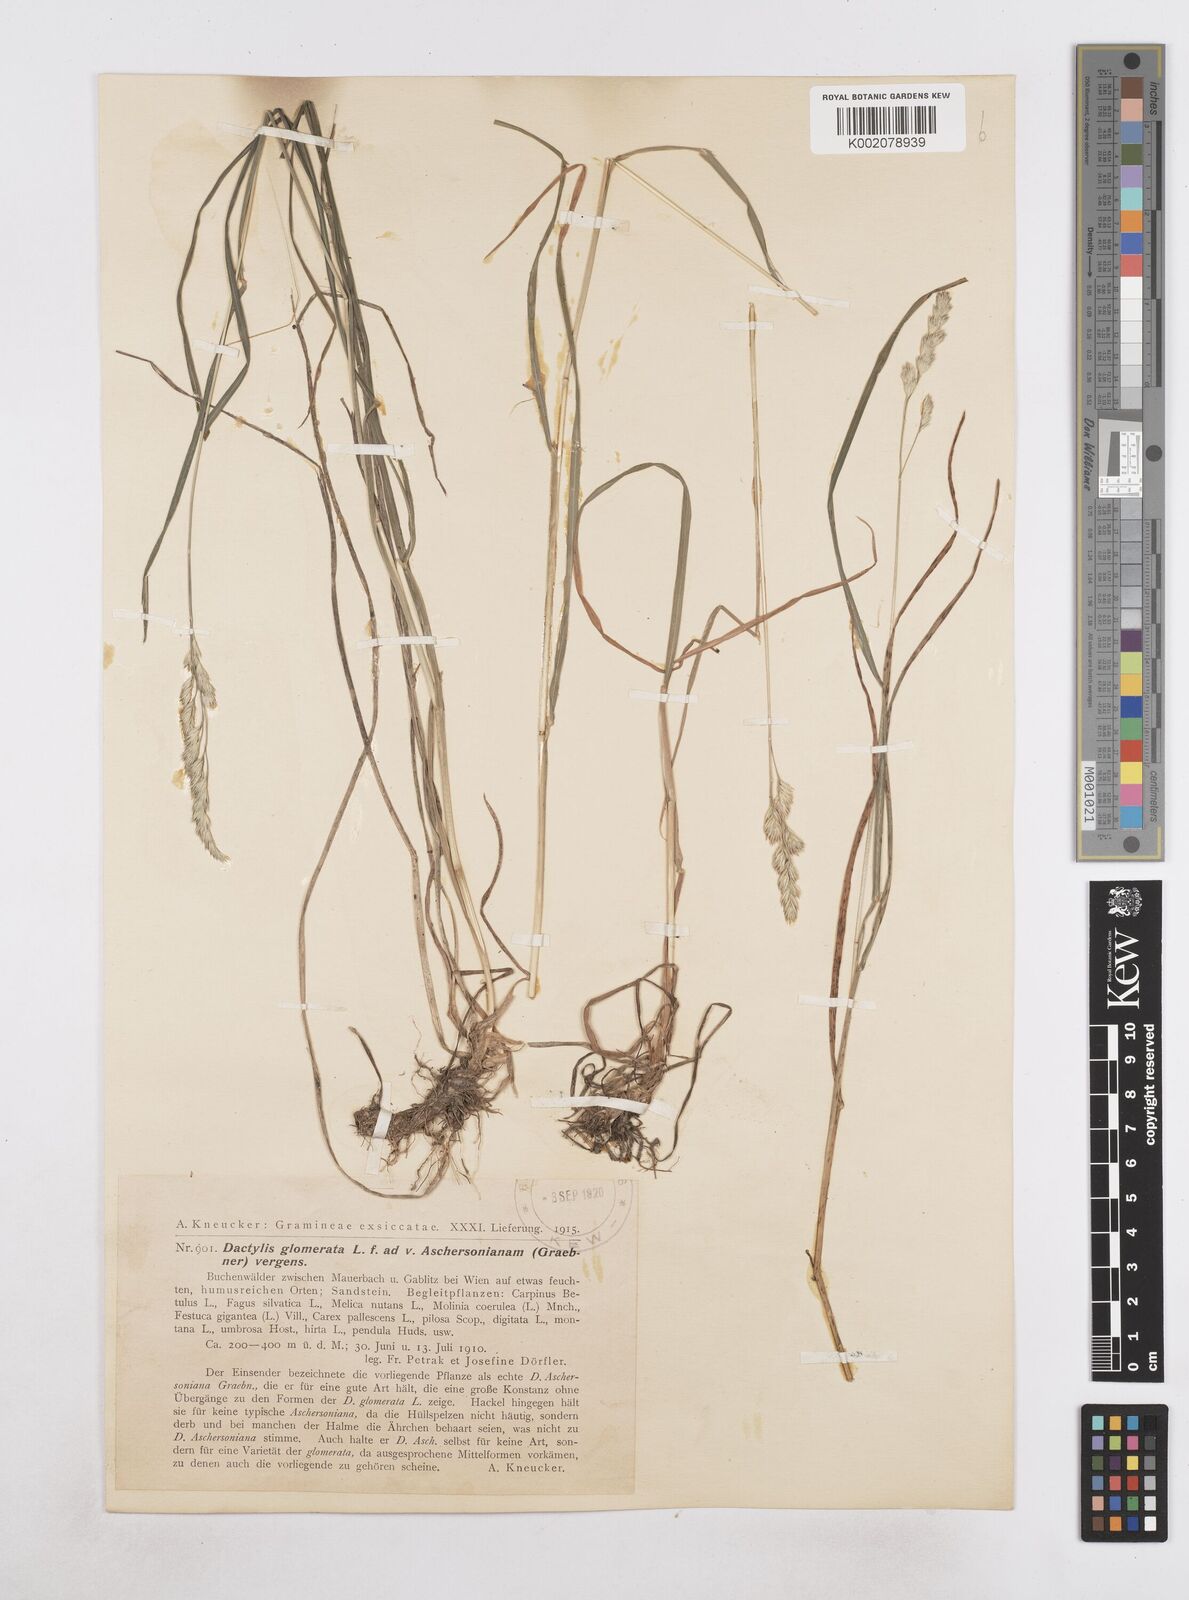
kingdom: Plantae
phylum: Tracheophyta
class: Liliopsida
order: Poales
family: Poaceae
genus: Dactylis
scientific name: Dactylis glomerata
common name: Orchardgrass
